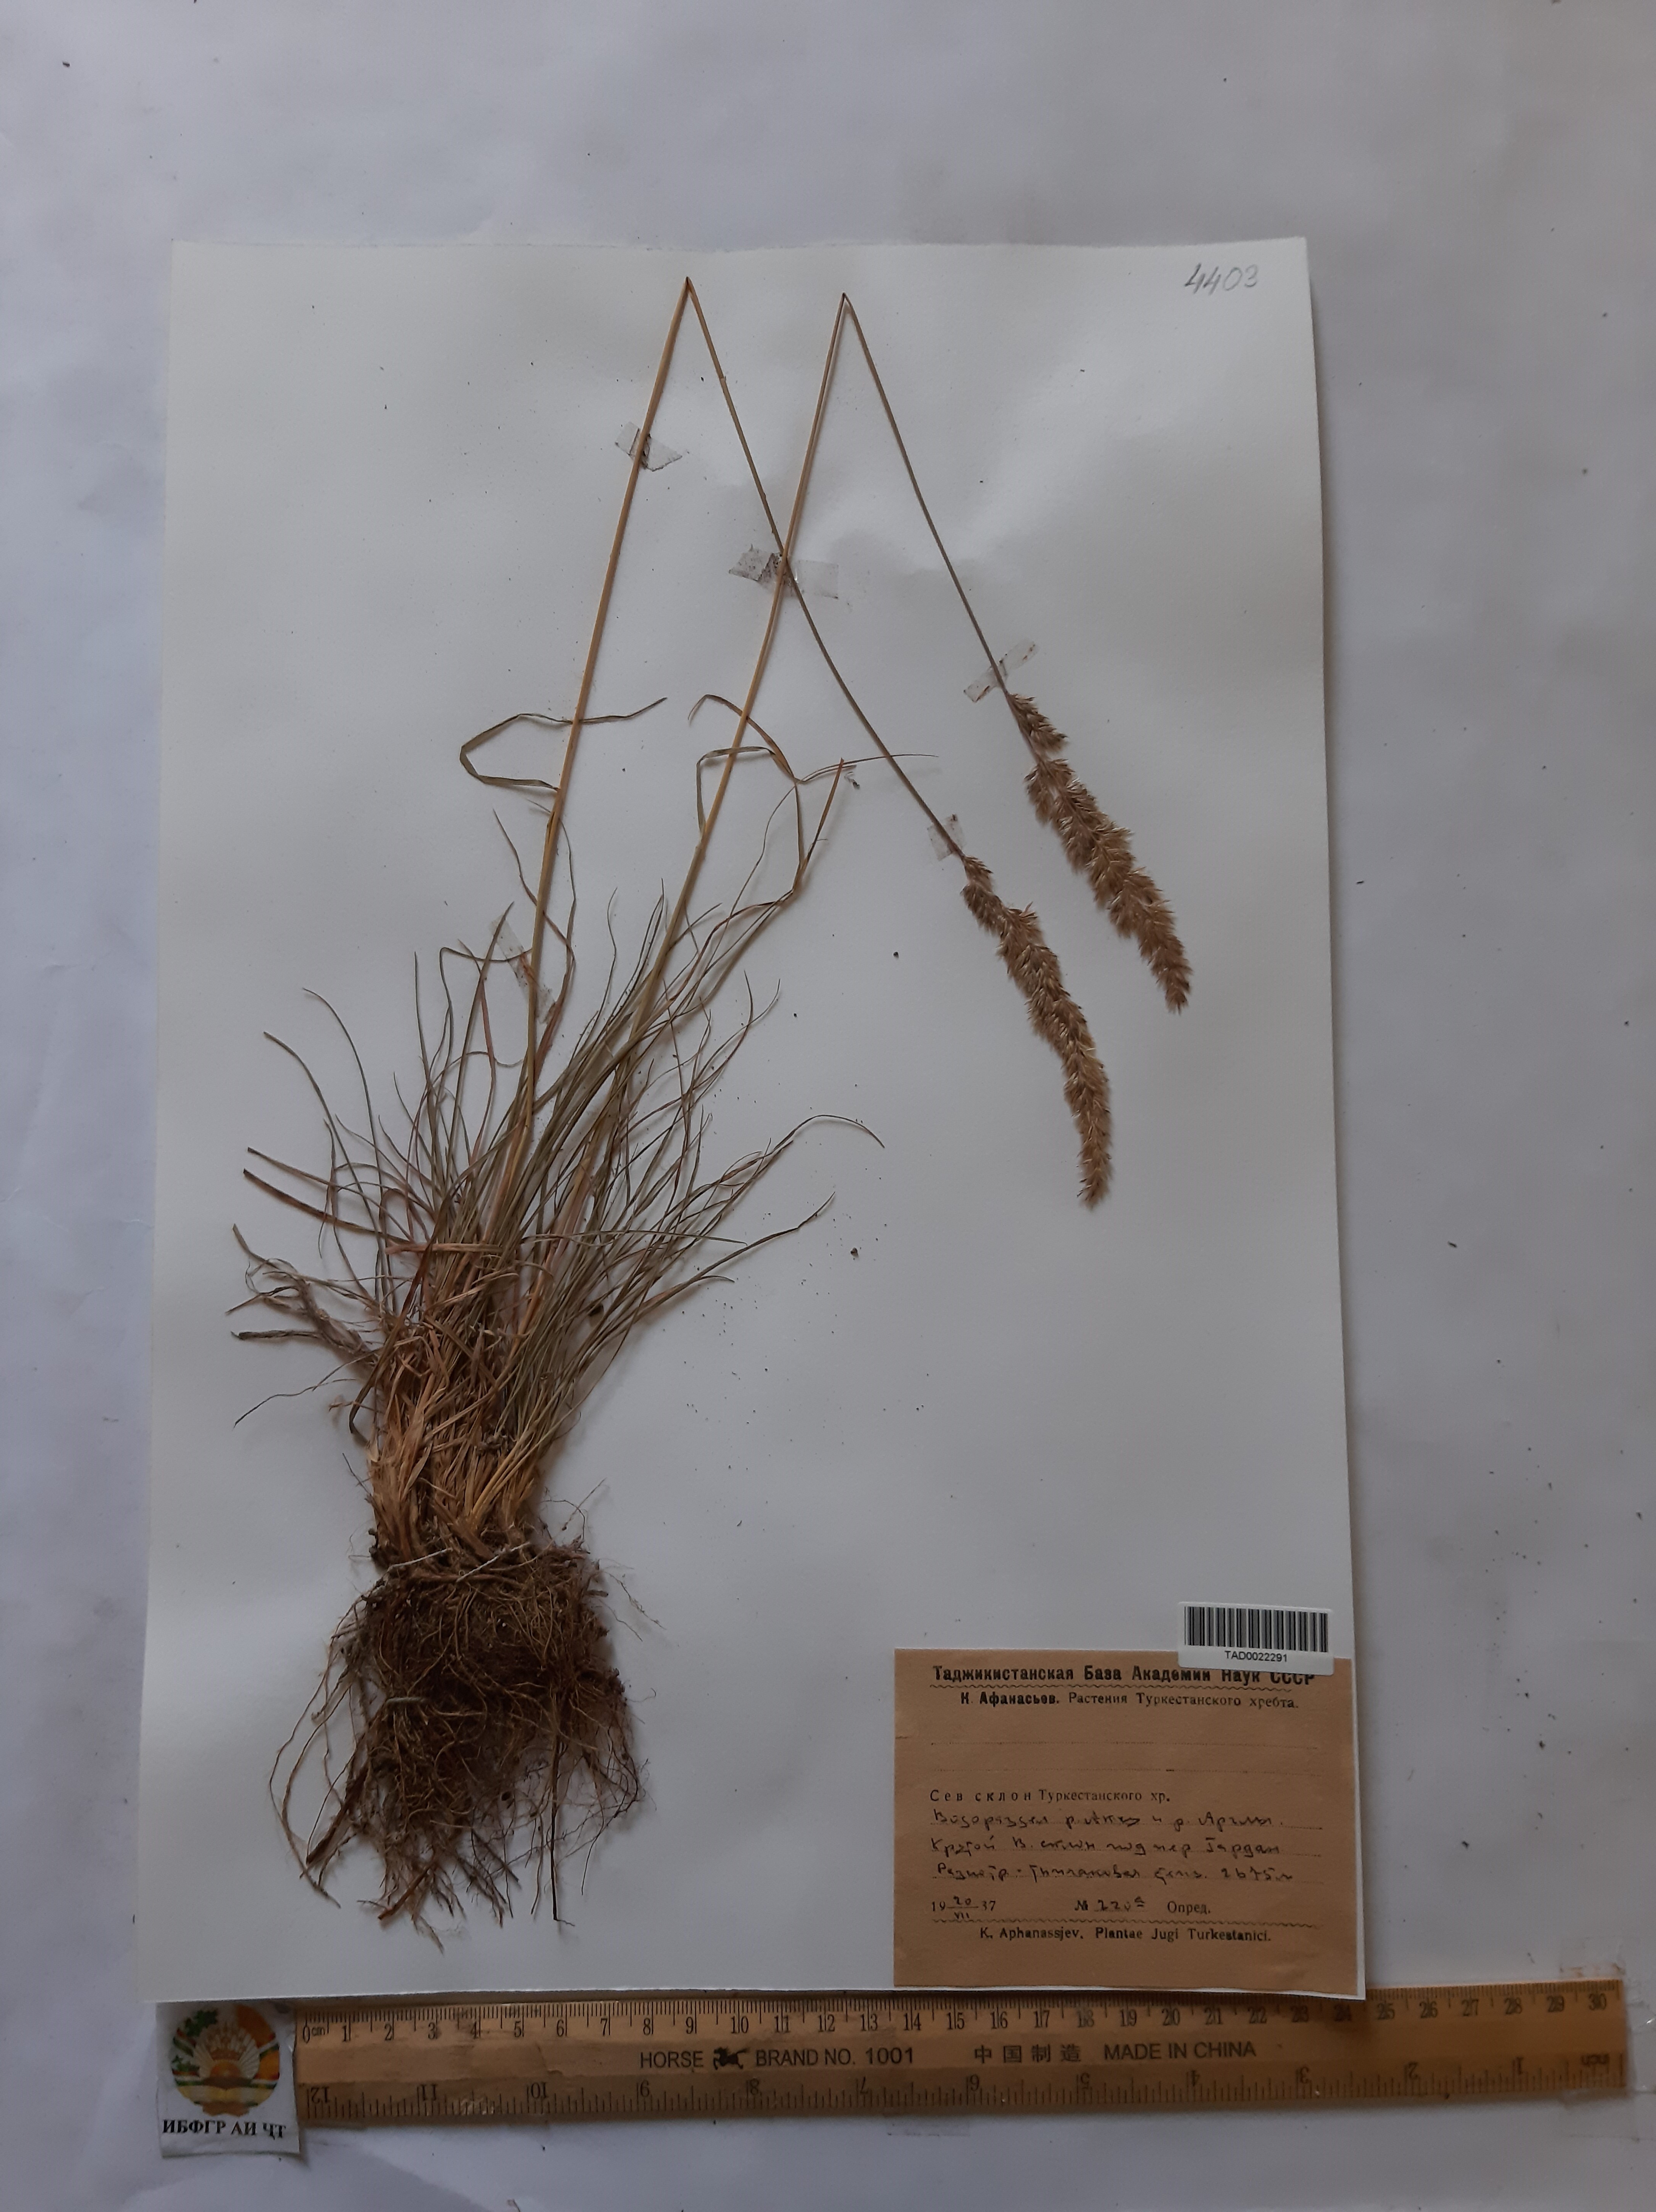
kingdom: Plantae
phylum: Tracheophyta
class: Liliopsida
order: Poales
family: Poaceae
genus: Koeleria
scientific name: Koeleria macrantha
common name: Crested hair-grass
